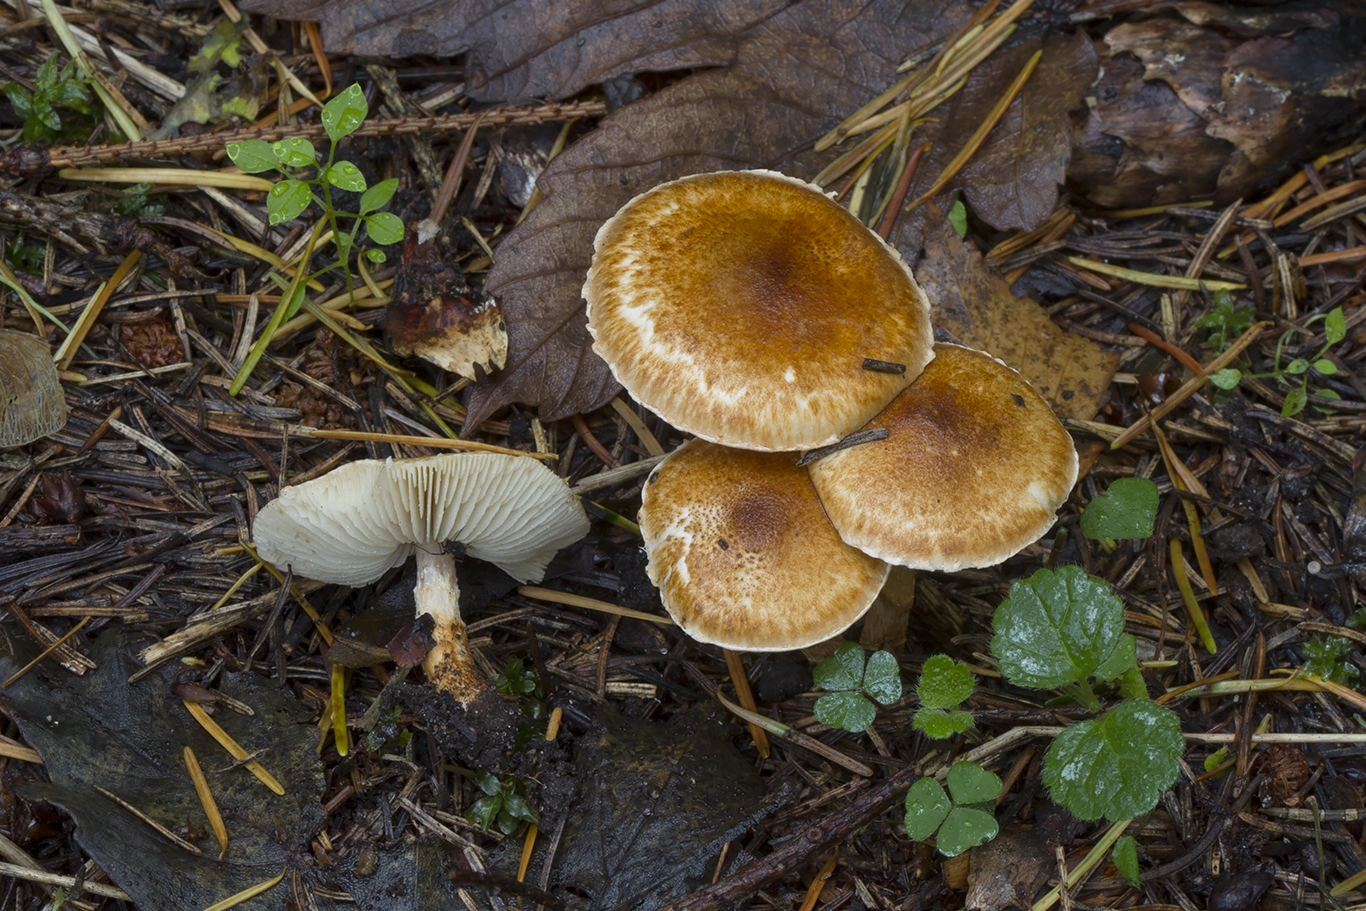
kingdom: Fungi
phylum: Basidiomycota
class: Agaricomycetes
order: Agaricales
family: Agaricaceae
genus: Leucocoprinus
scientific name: Leucocoprinus straminellus
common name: rustbrun parasolhat
